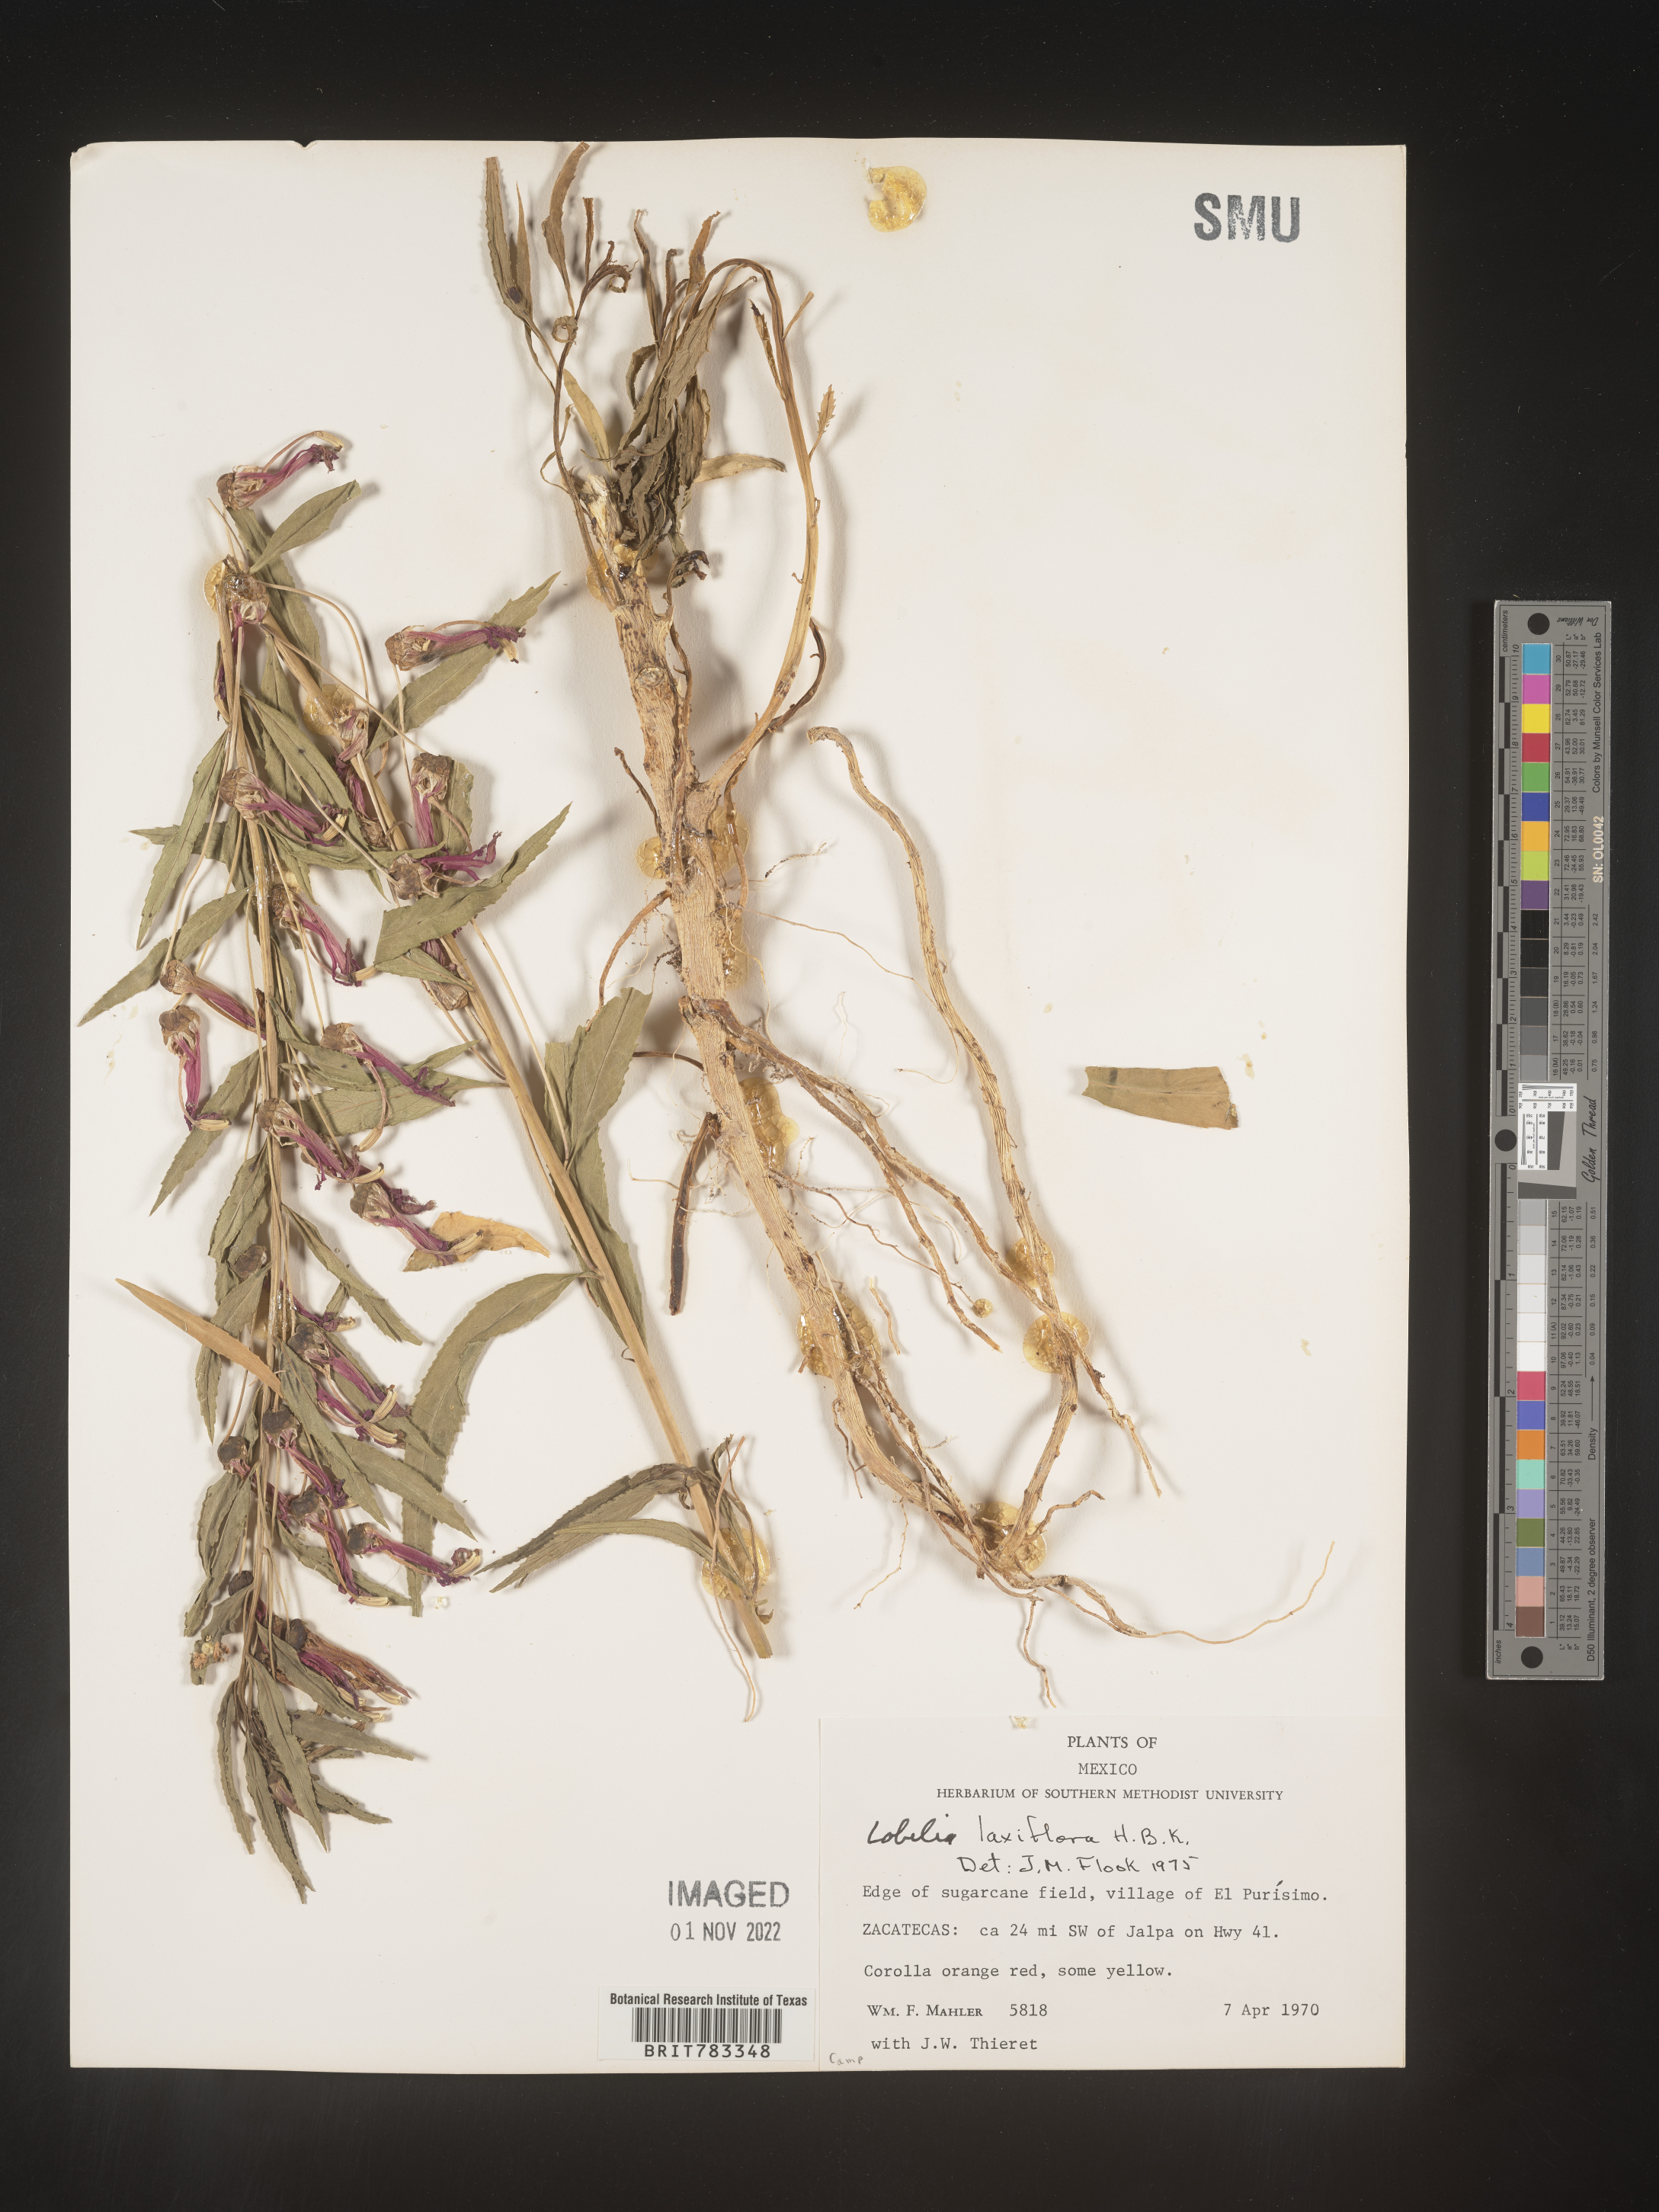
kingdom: Plantae
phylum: Tracheophyta
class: Magnoliopsida
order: Asterales
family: Campanulaceae
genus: Lobelia
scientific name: Lobelia
